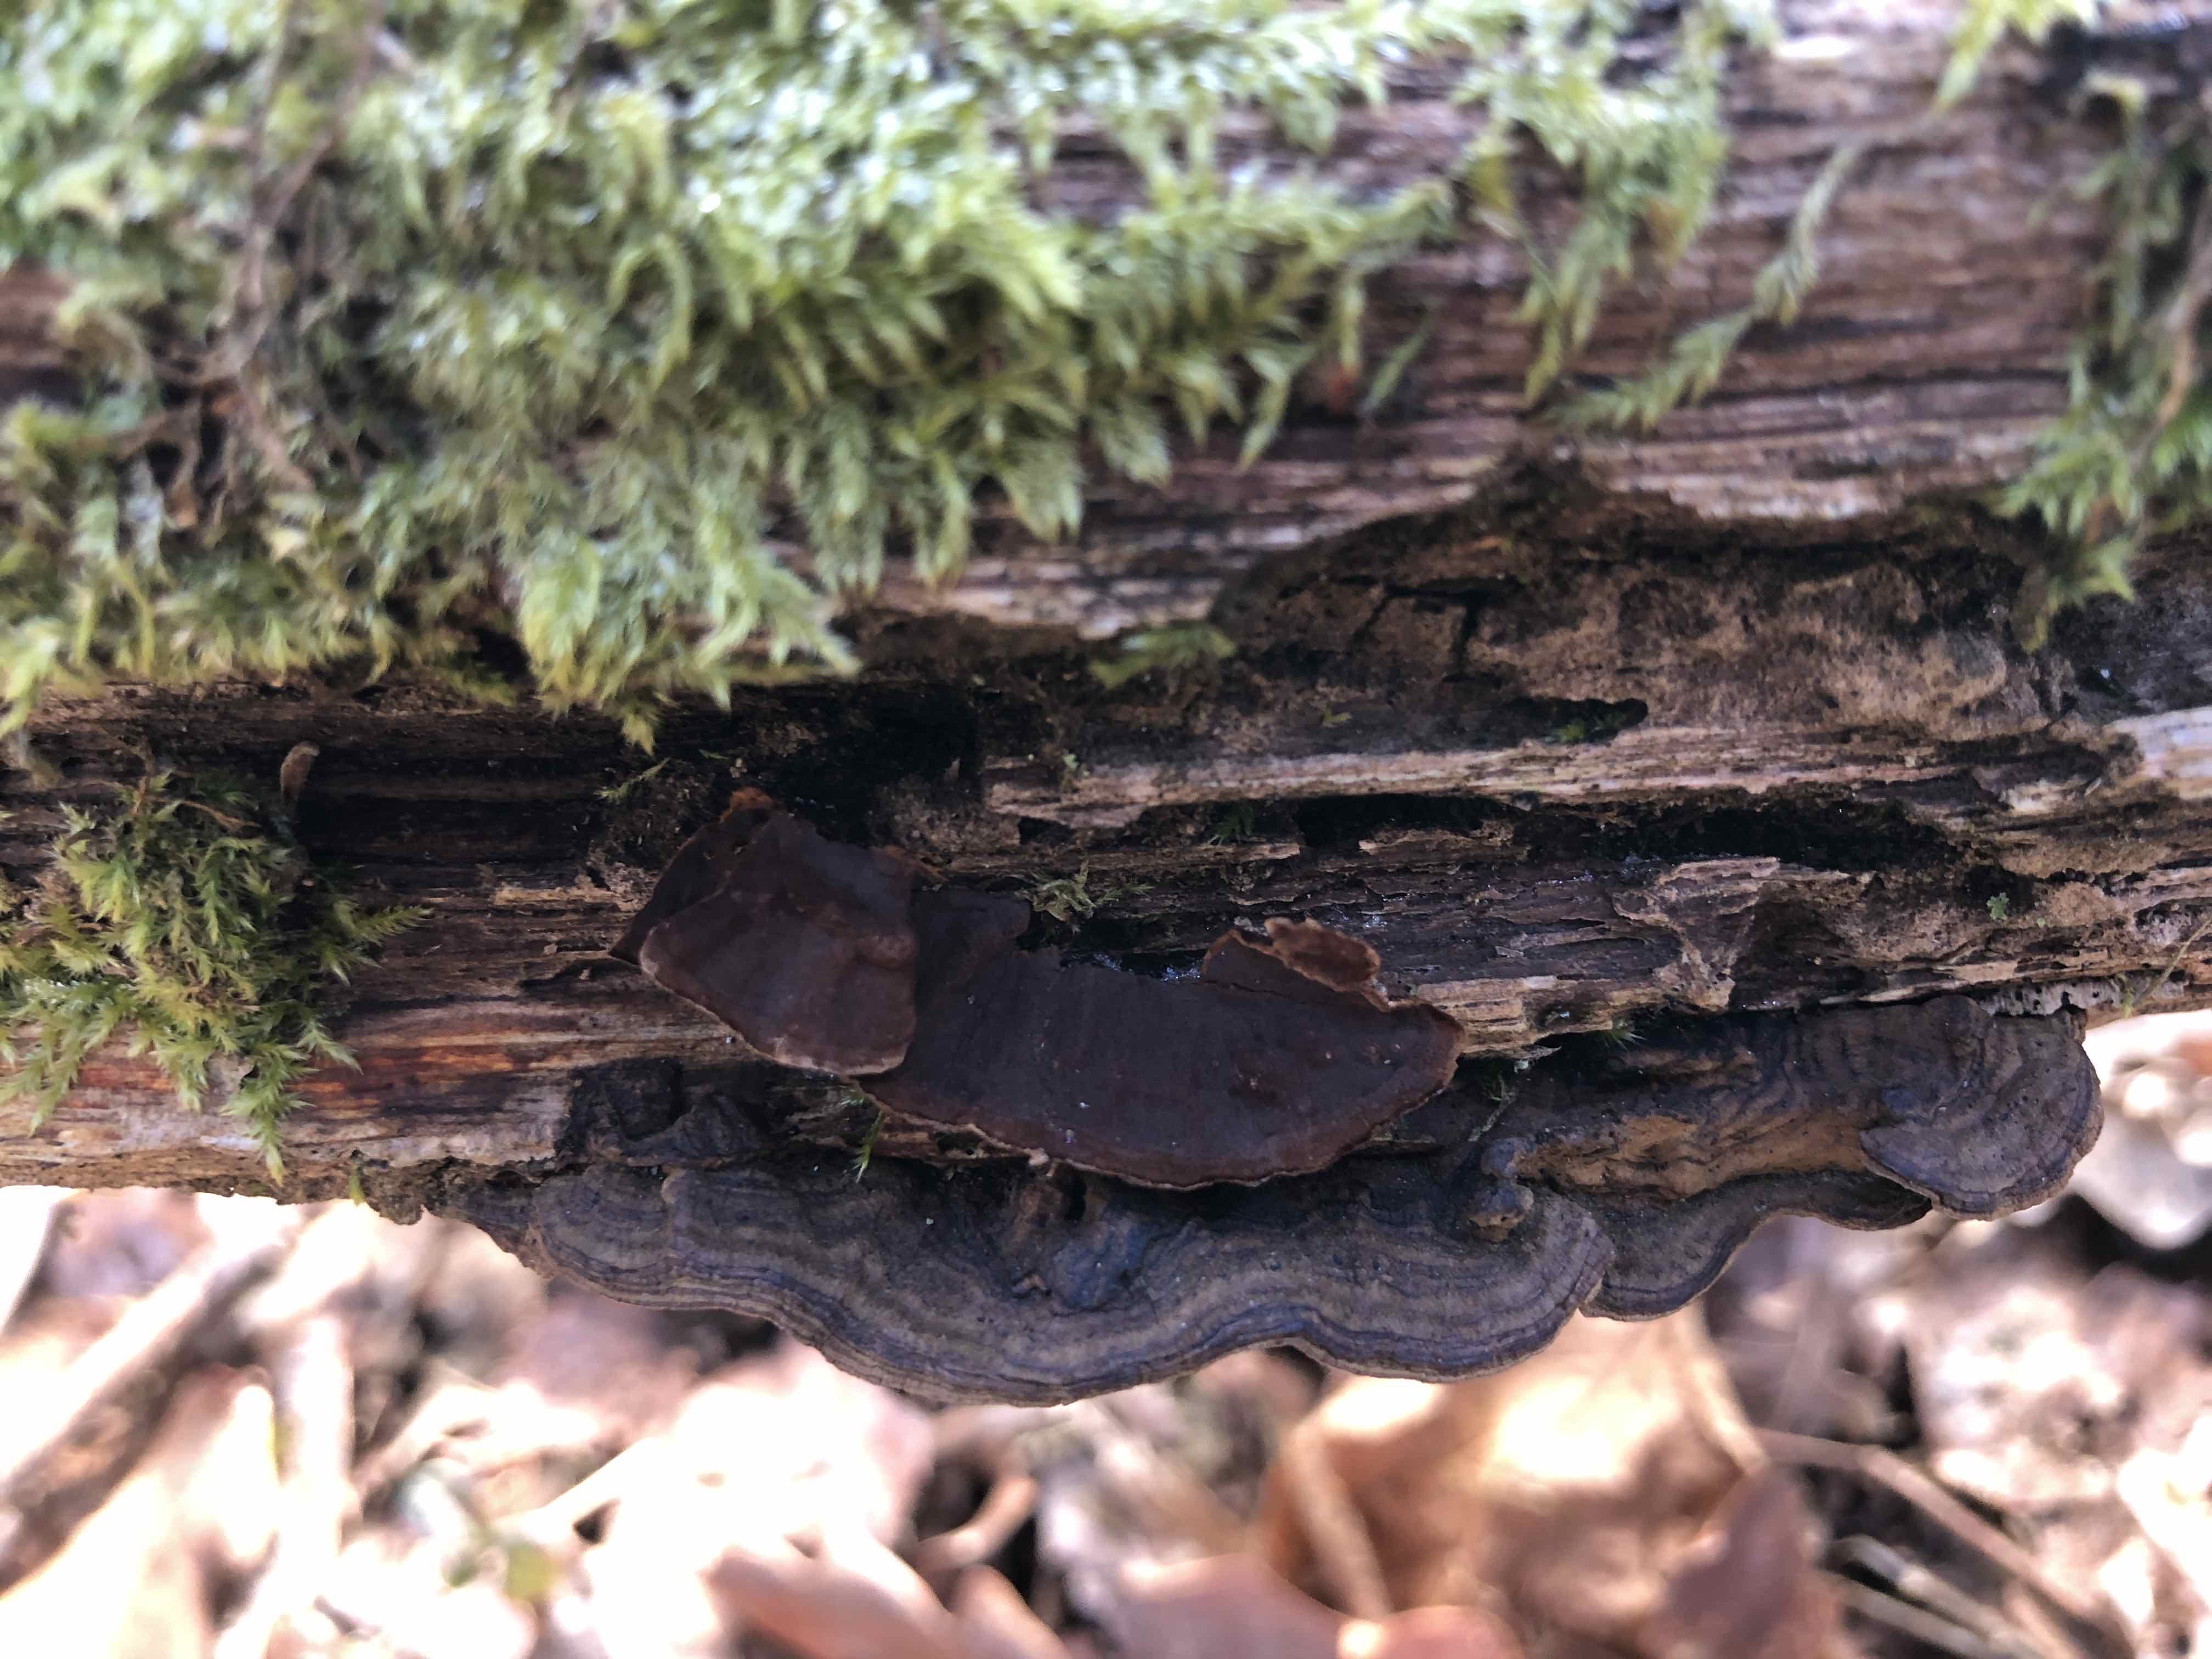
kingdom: Fungi
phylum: Basidiomycota
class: Agaricomycetes
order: Hymenochaetales
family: Hymenochaetaceae
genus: Hymenochaete
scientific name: Hymenochaete rubiginosa
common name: stiv ruslædersvamp
